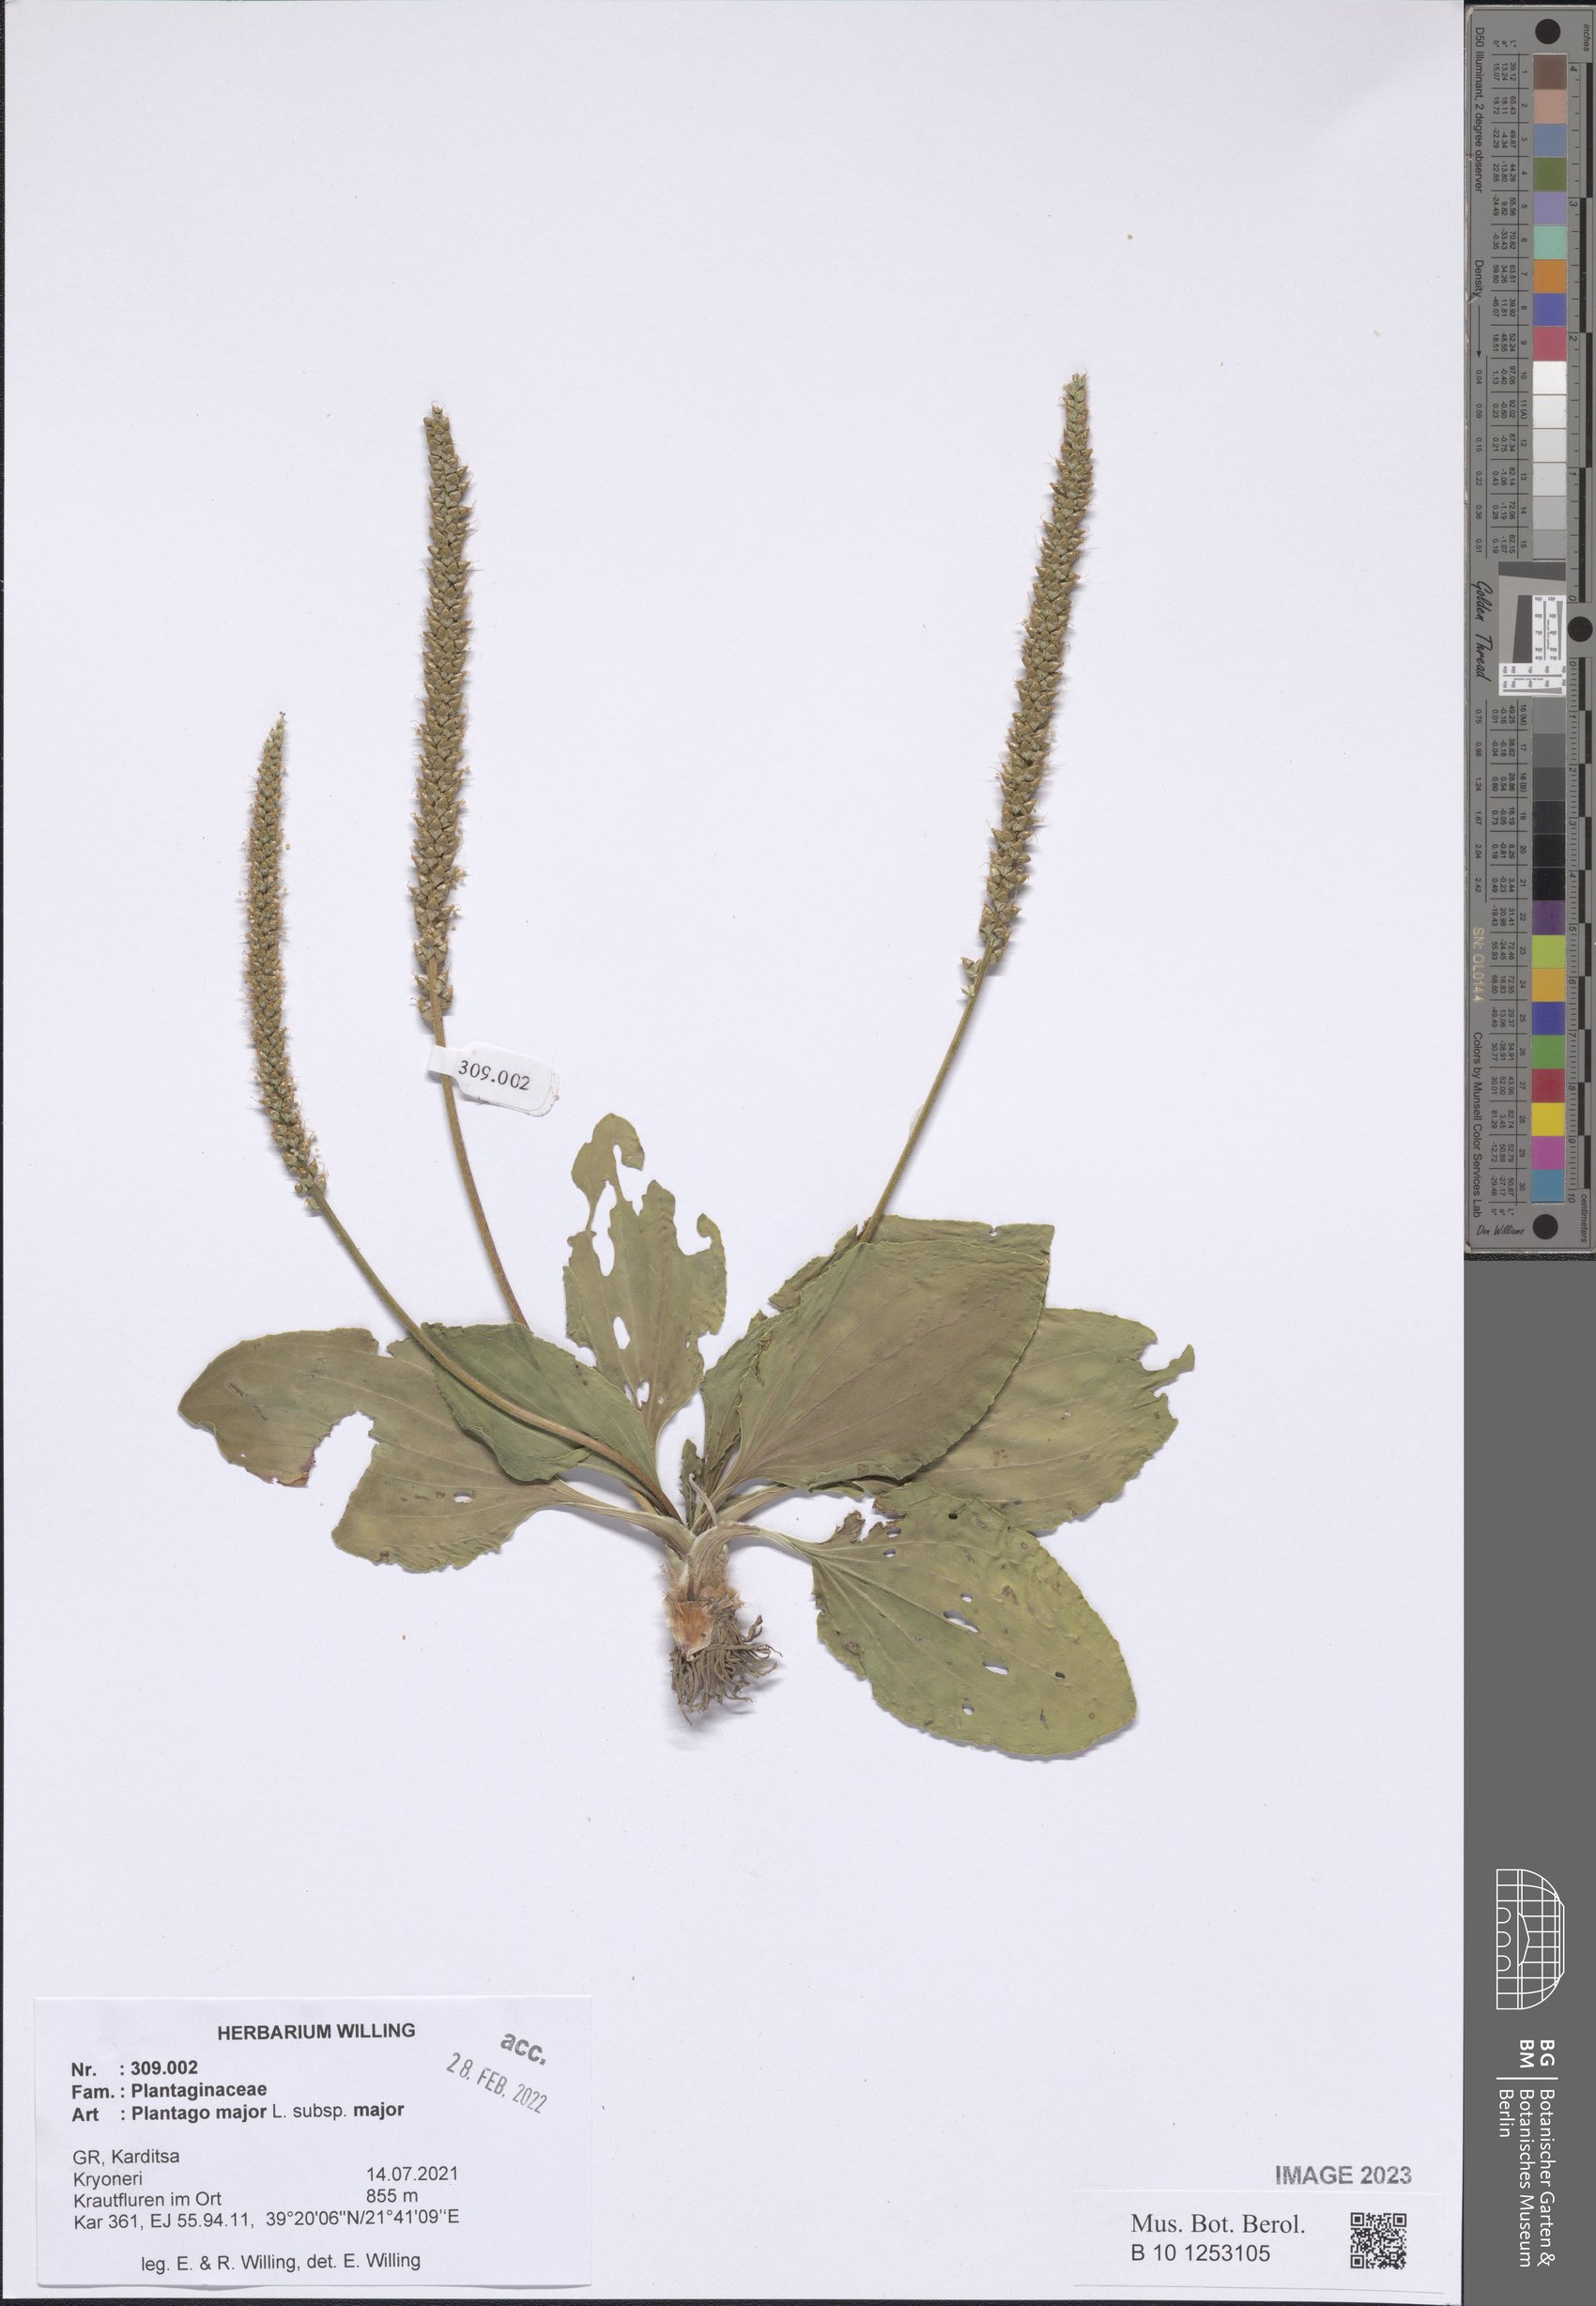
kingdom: Plantae
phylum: Tracheophyta
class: Magnoliopsida
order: Lamiales
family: Plantaginaceae
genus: Plantago
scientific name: Plantago major
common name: Common plantain
